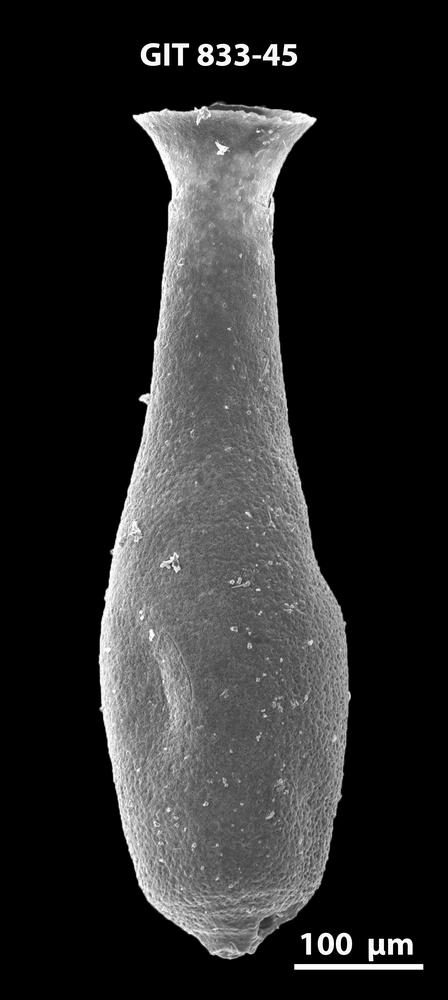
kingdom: Animalia
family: Lagenochitinidae
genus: Lagenochitina
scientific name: Lagenochitina megaesthonica
